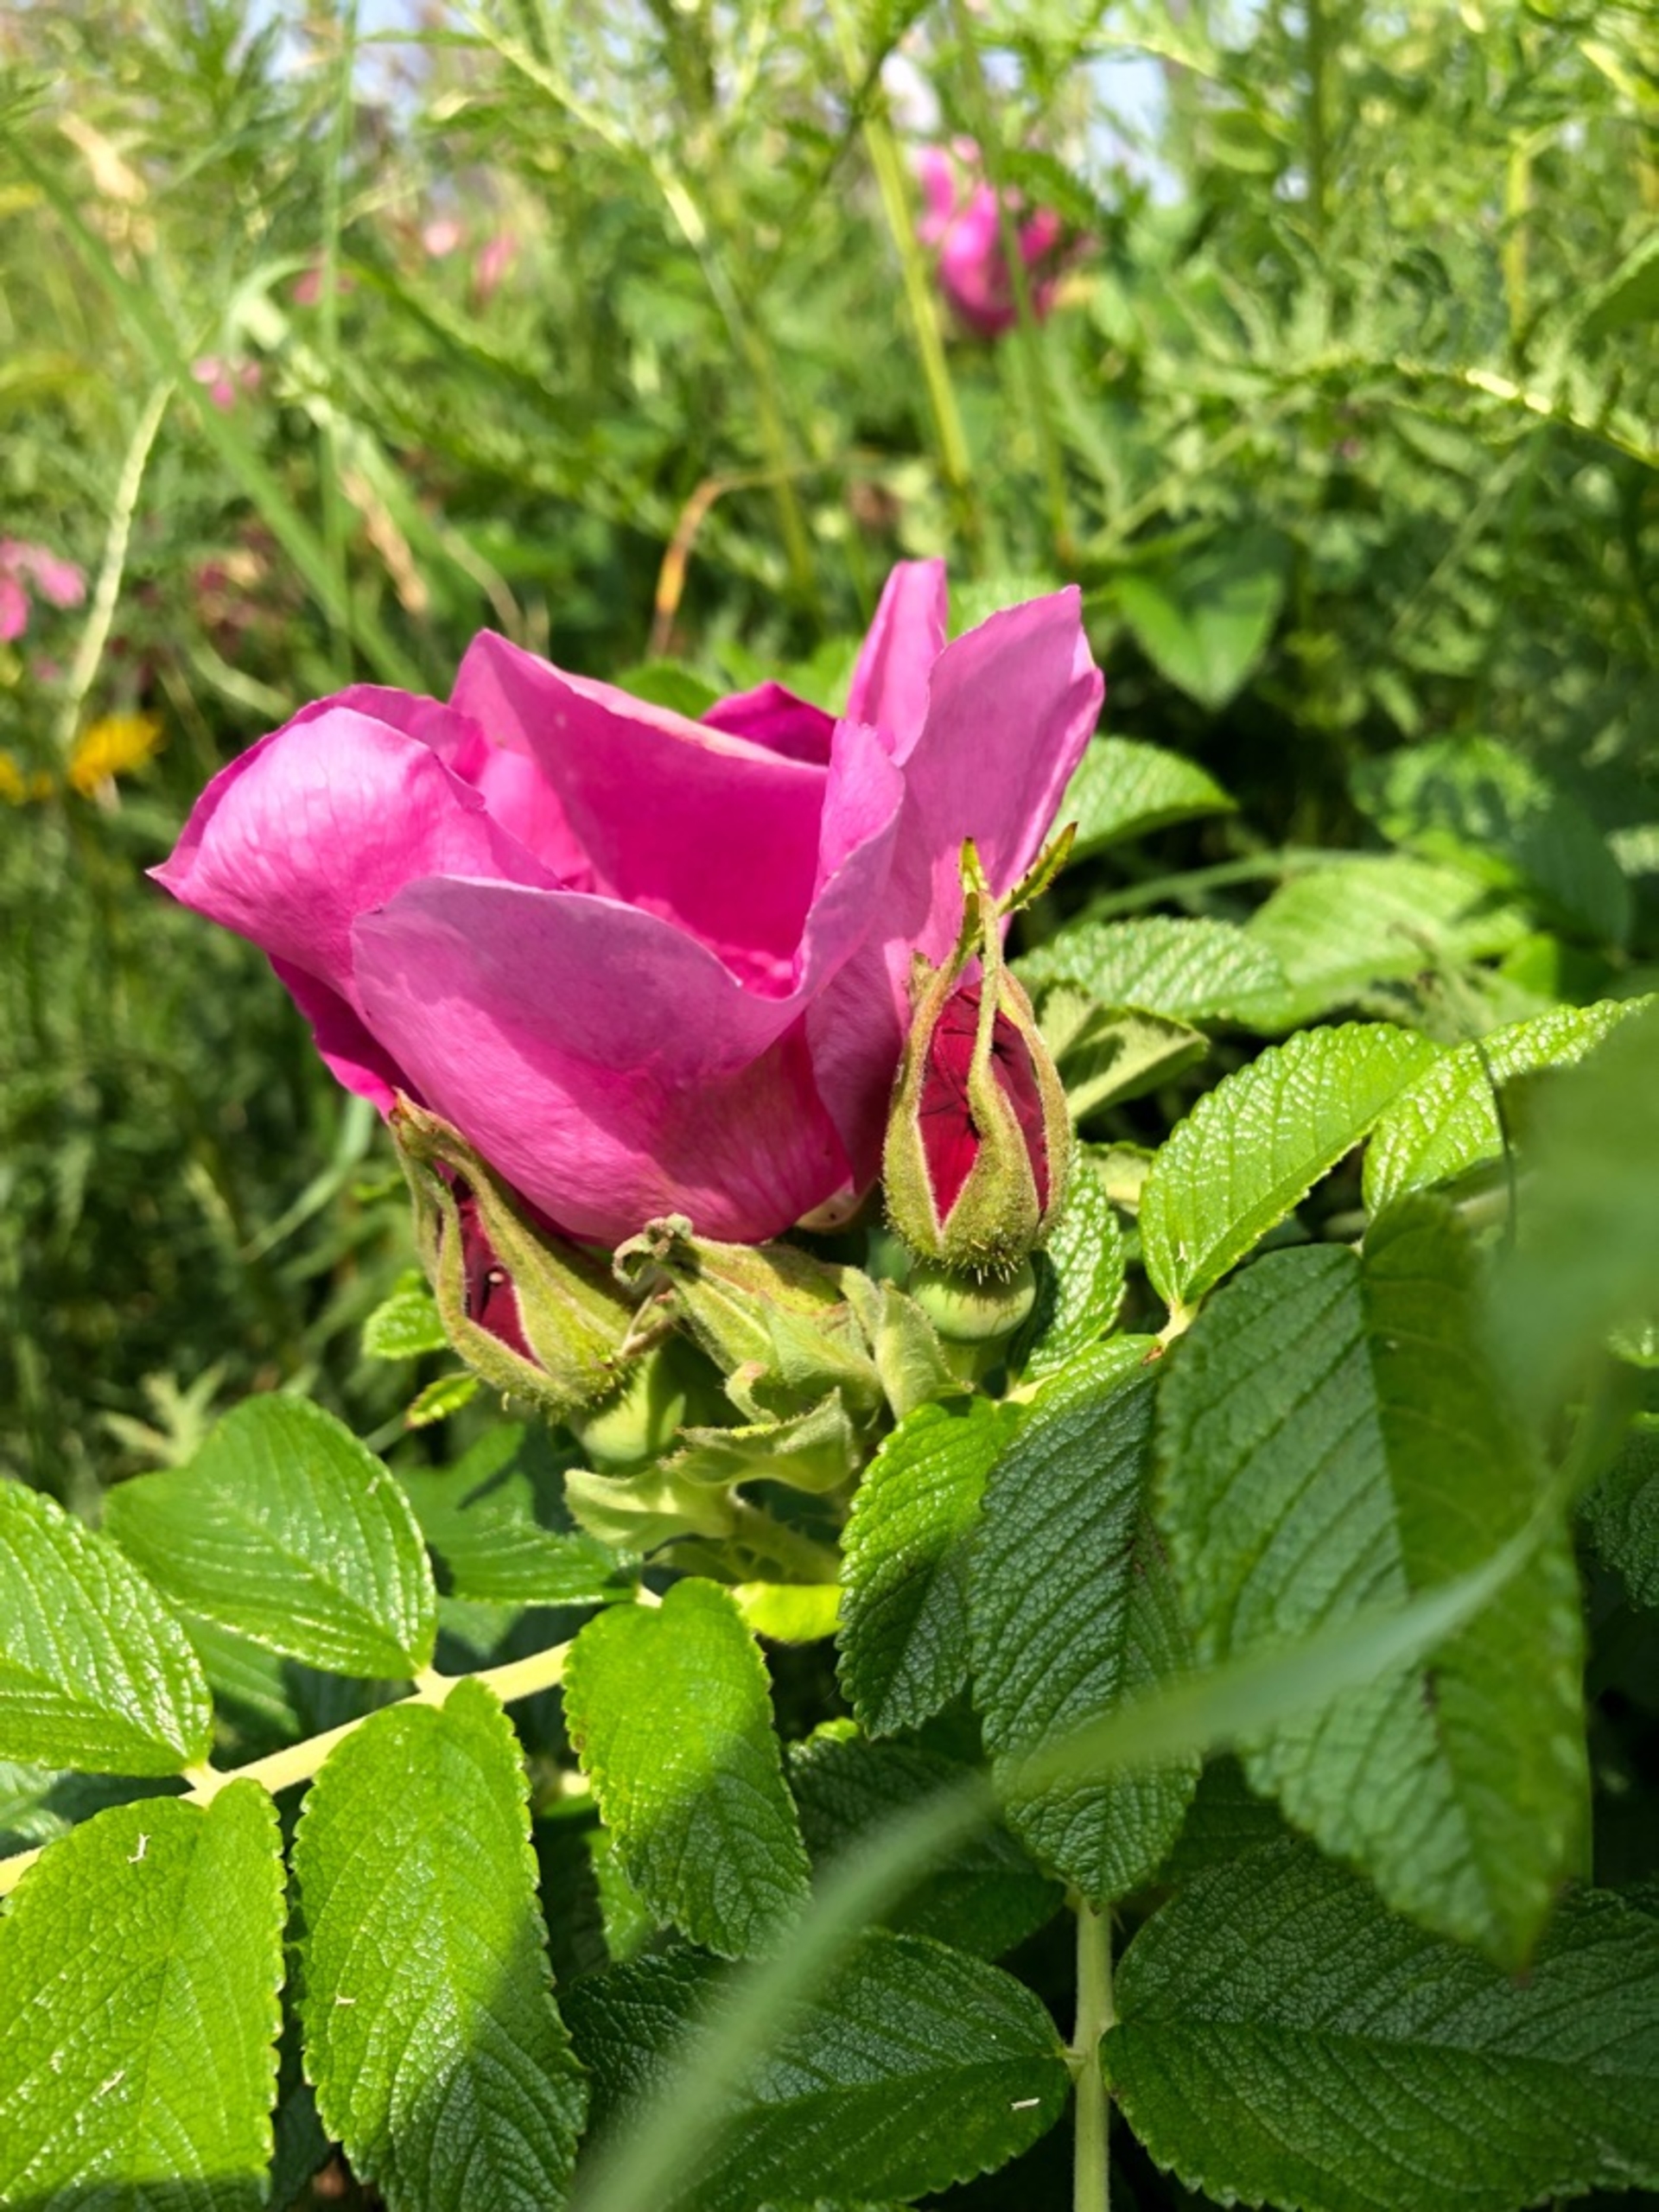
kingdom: Plantae
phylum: Tracheophyta
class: Magnoliopsida
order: Rosales
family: Rosaceae
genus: Rosa
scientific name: Rosa rugosa
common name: Rynket rose
